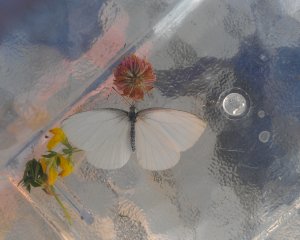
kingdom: Animalia
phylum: Arthropoda
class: Insecta
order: Lepidoptera
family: Pieridae
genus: Pieris
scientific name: Pieris oleracea
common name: Mustard White
